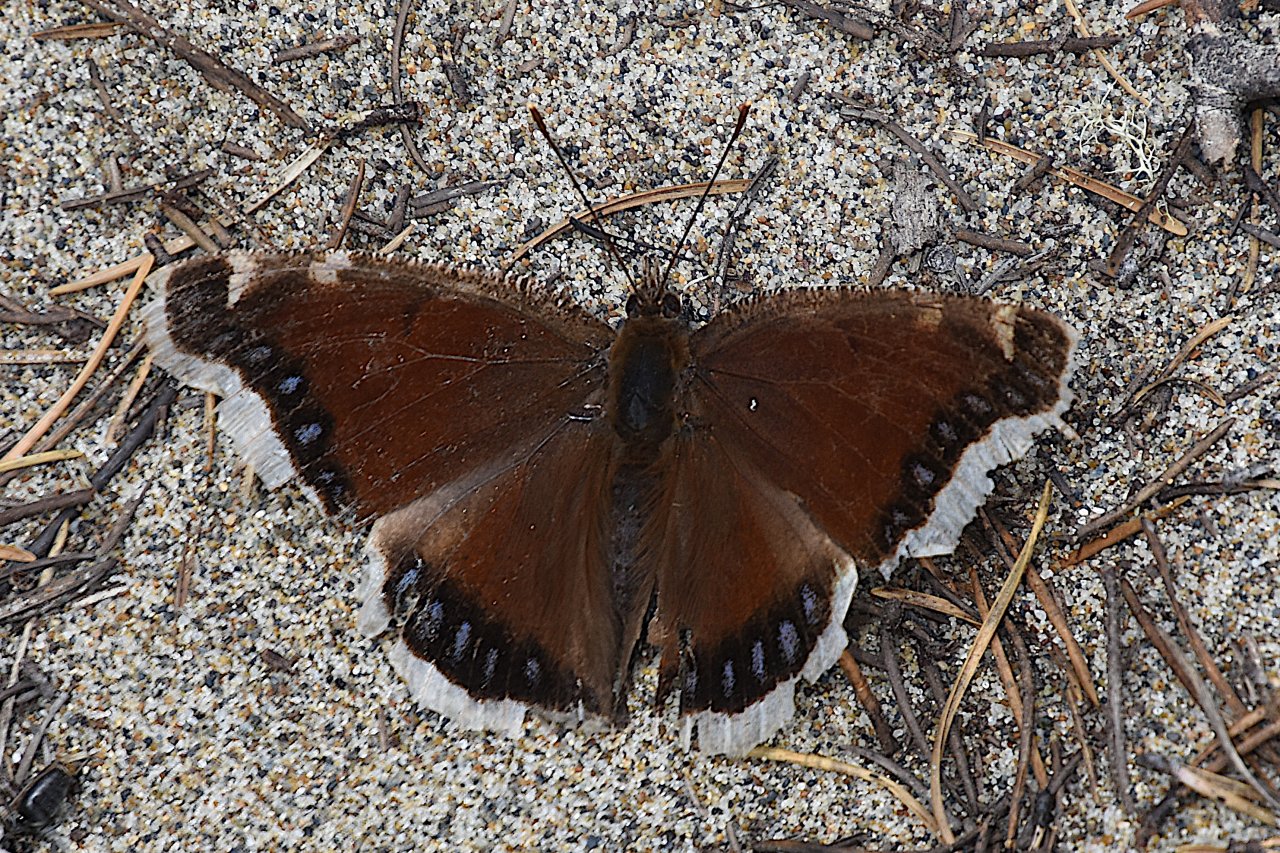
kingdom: Animalia
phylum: Arthropoda
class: Insecta
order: Lepidoptera
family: Nymphalidae
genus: Nymphalis
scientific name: Nymphalis antiopa
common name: Mourning Cloak
